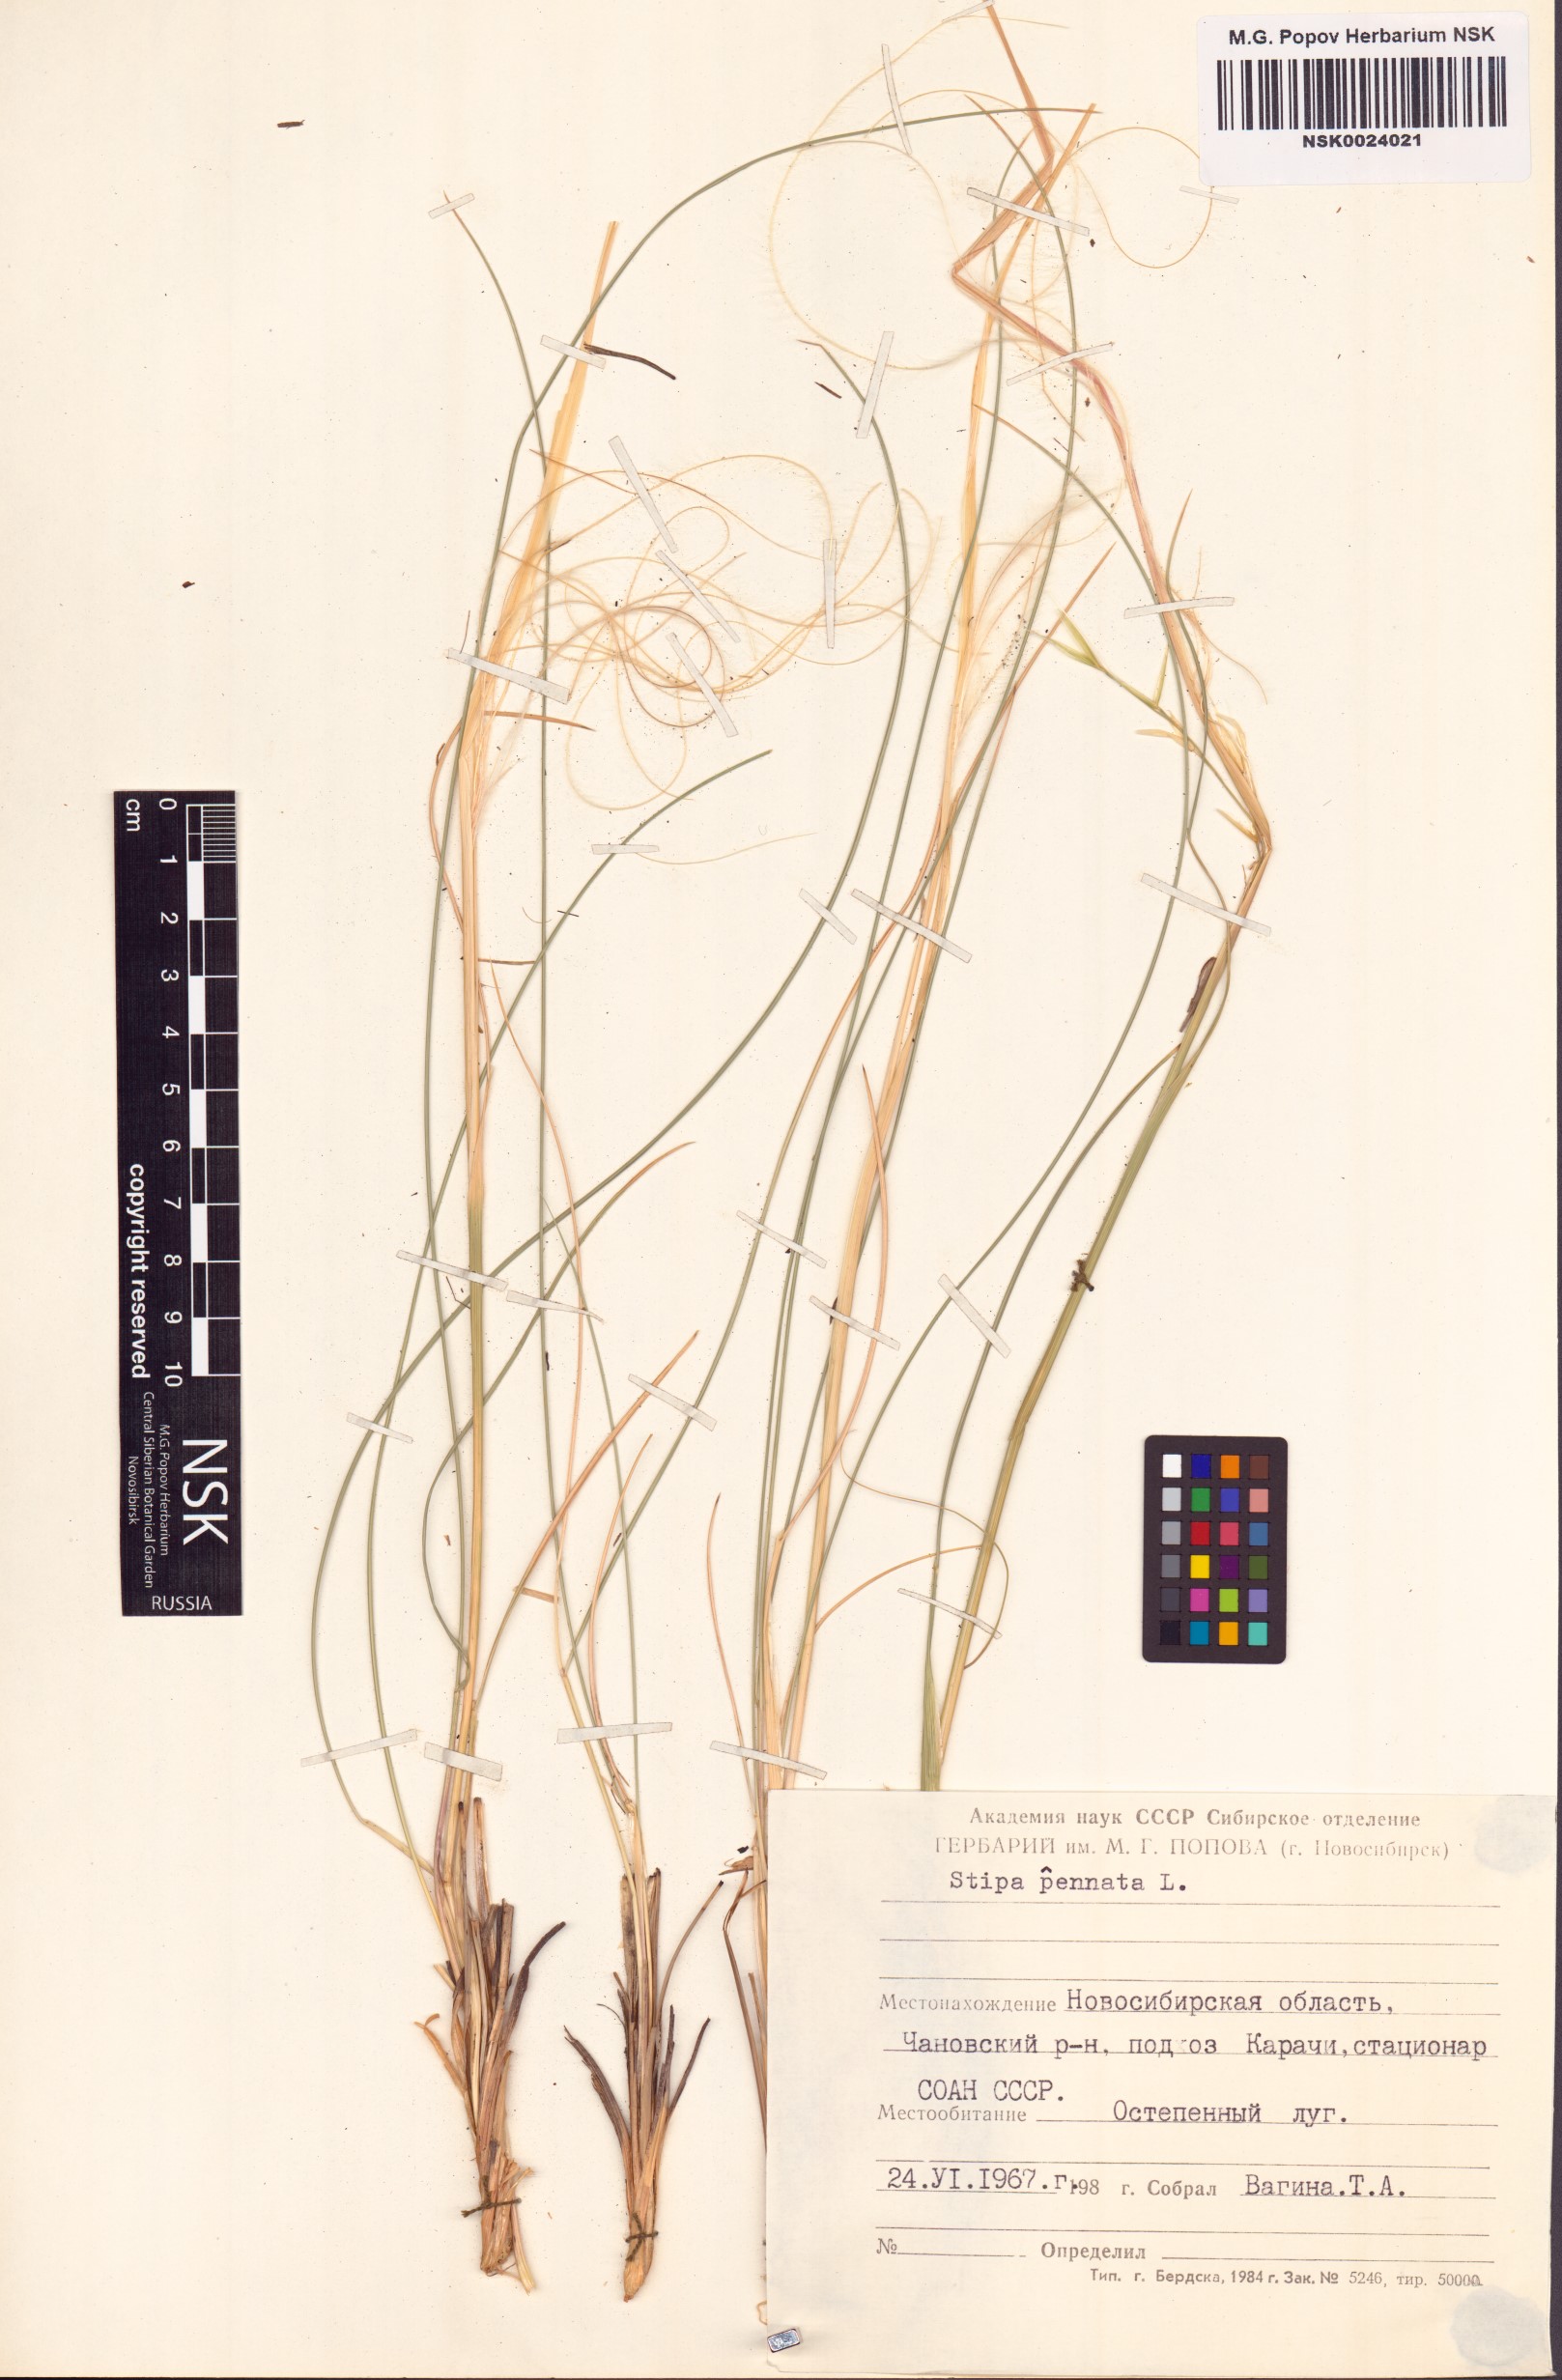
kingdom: Plantae
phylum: Tracheophyta
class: Liliopsida
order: Poales
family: Poaceae
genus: Stipa
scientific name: Stipa pennata
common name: European feather grass
